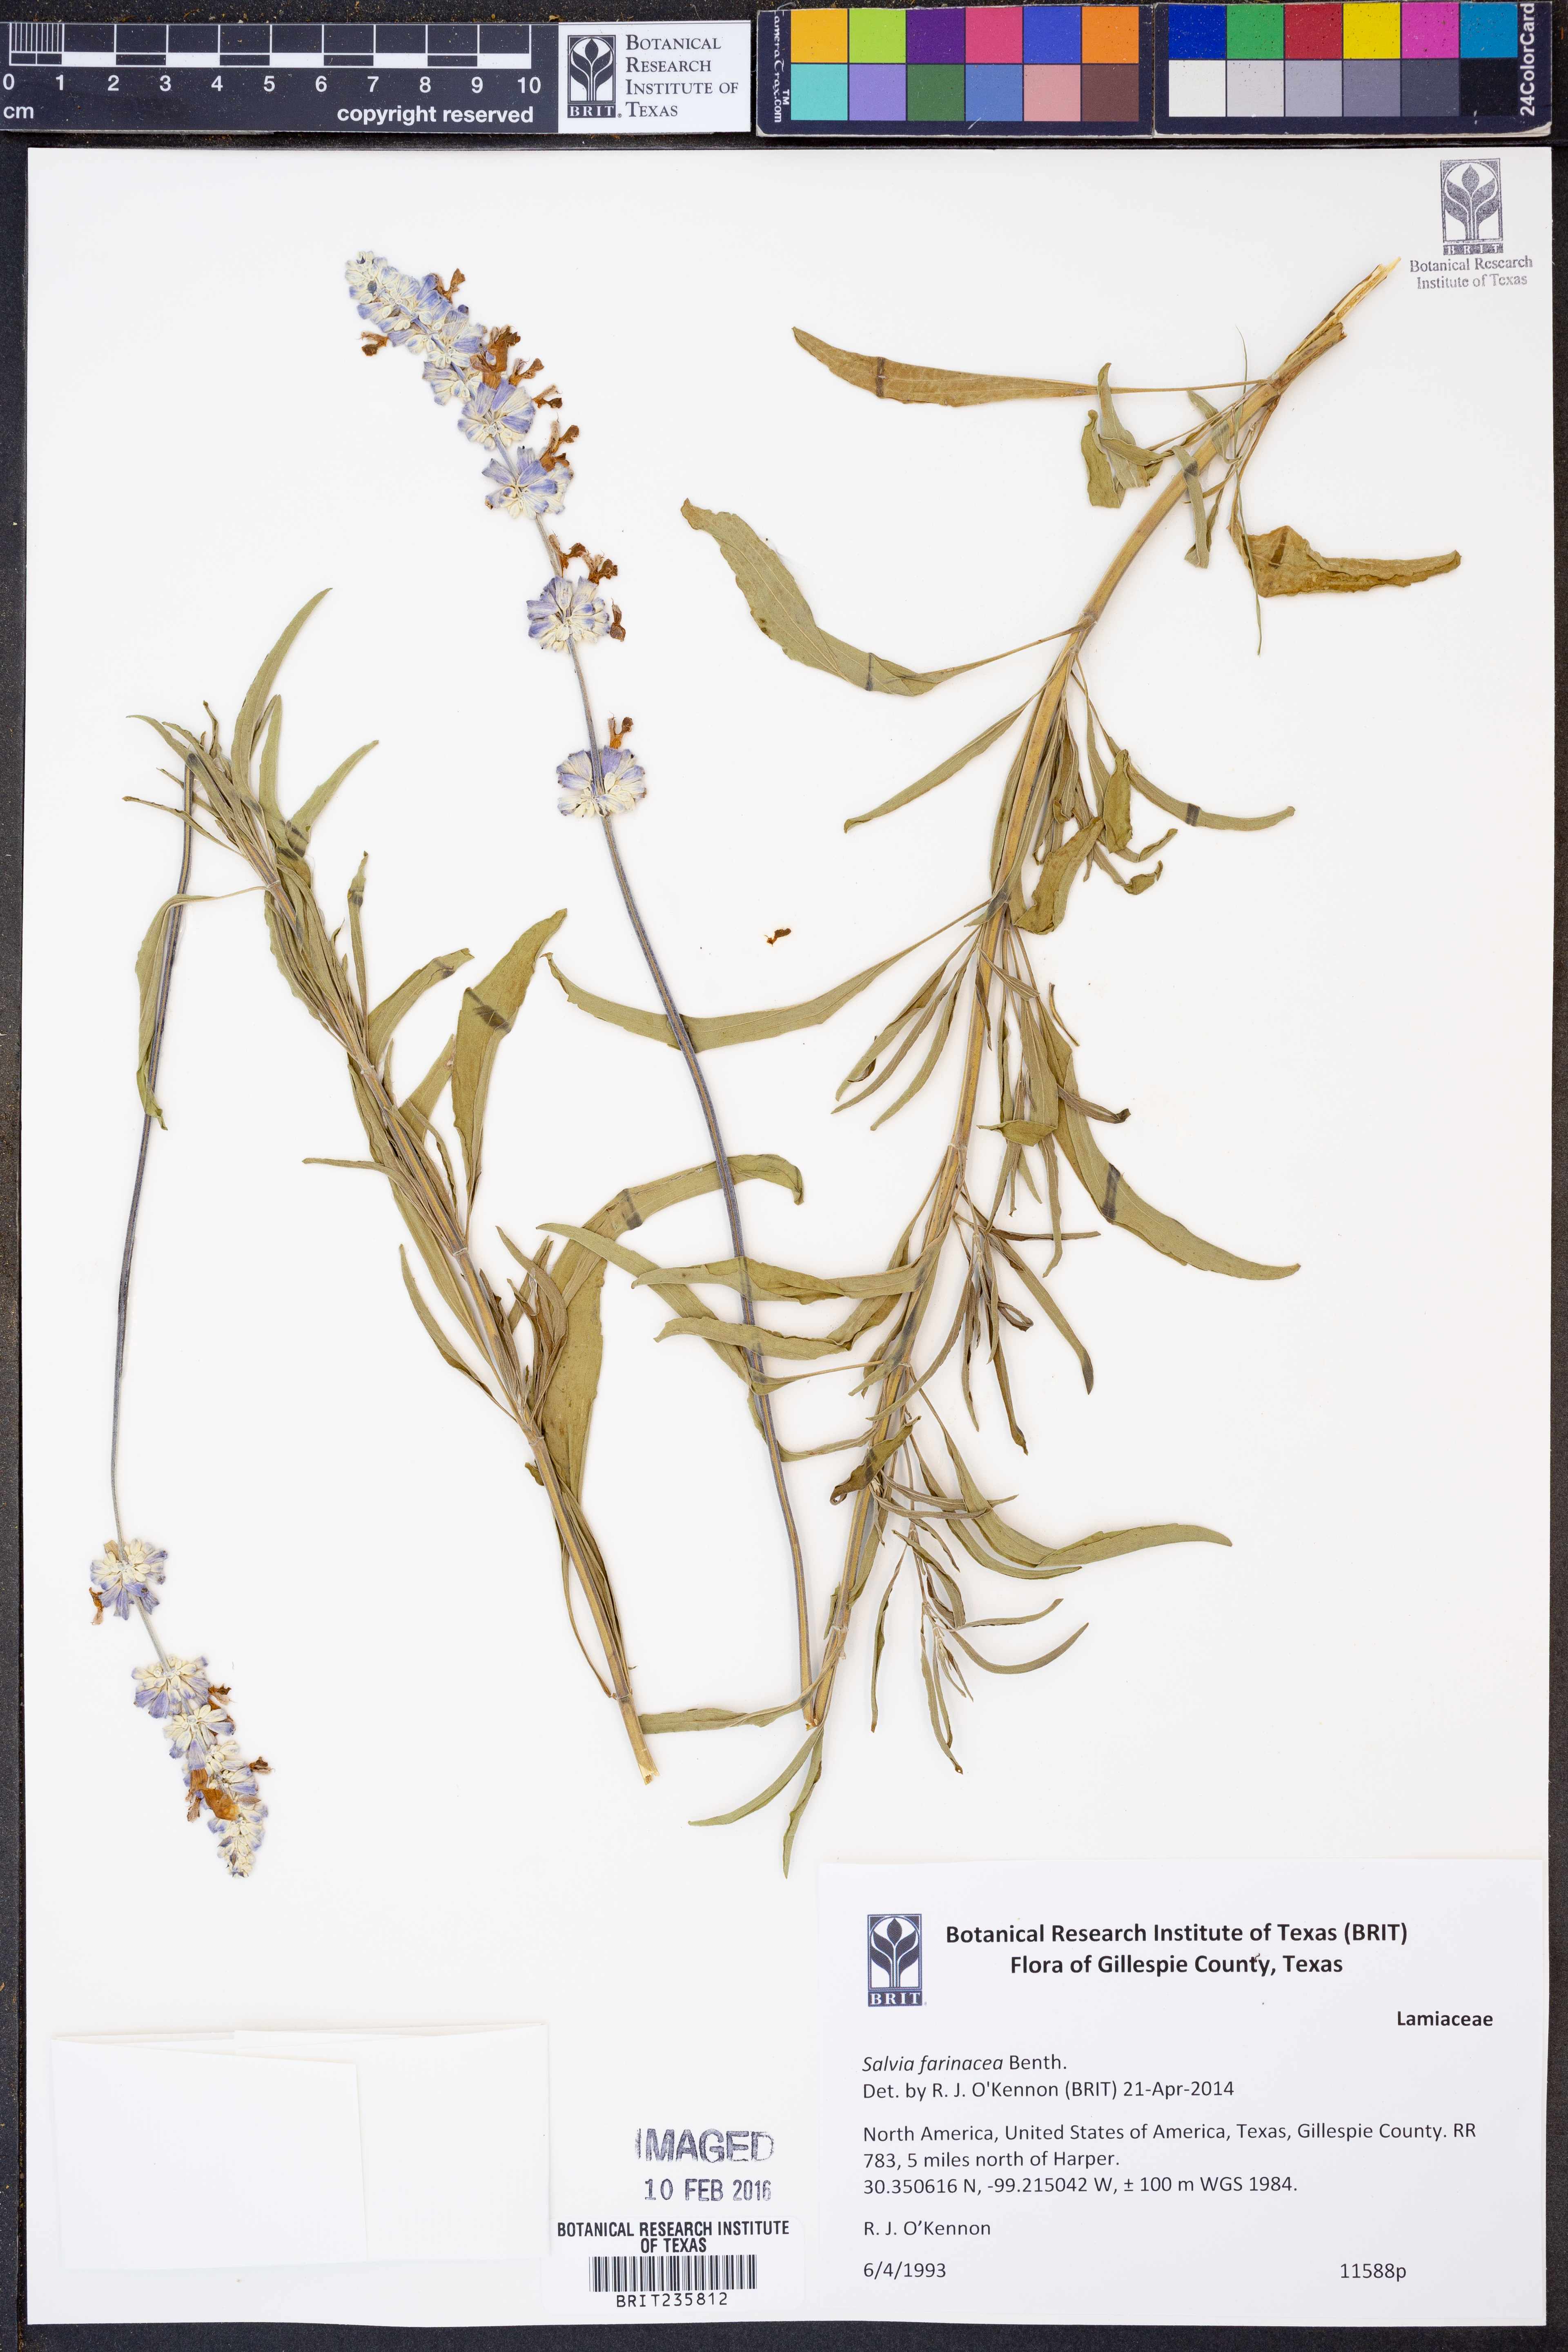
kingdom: Plantae
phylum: Tracheophyta
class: Magnoliopsida
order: Lamiales
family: Lamiaceae
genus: Salvia
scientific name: Salvia farinacea
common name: Mealy sage
